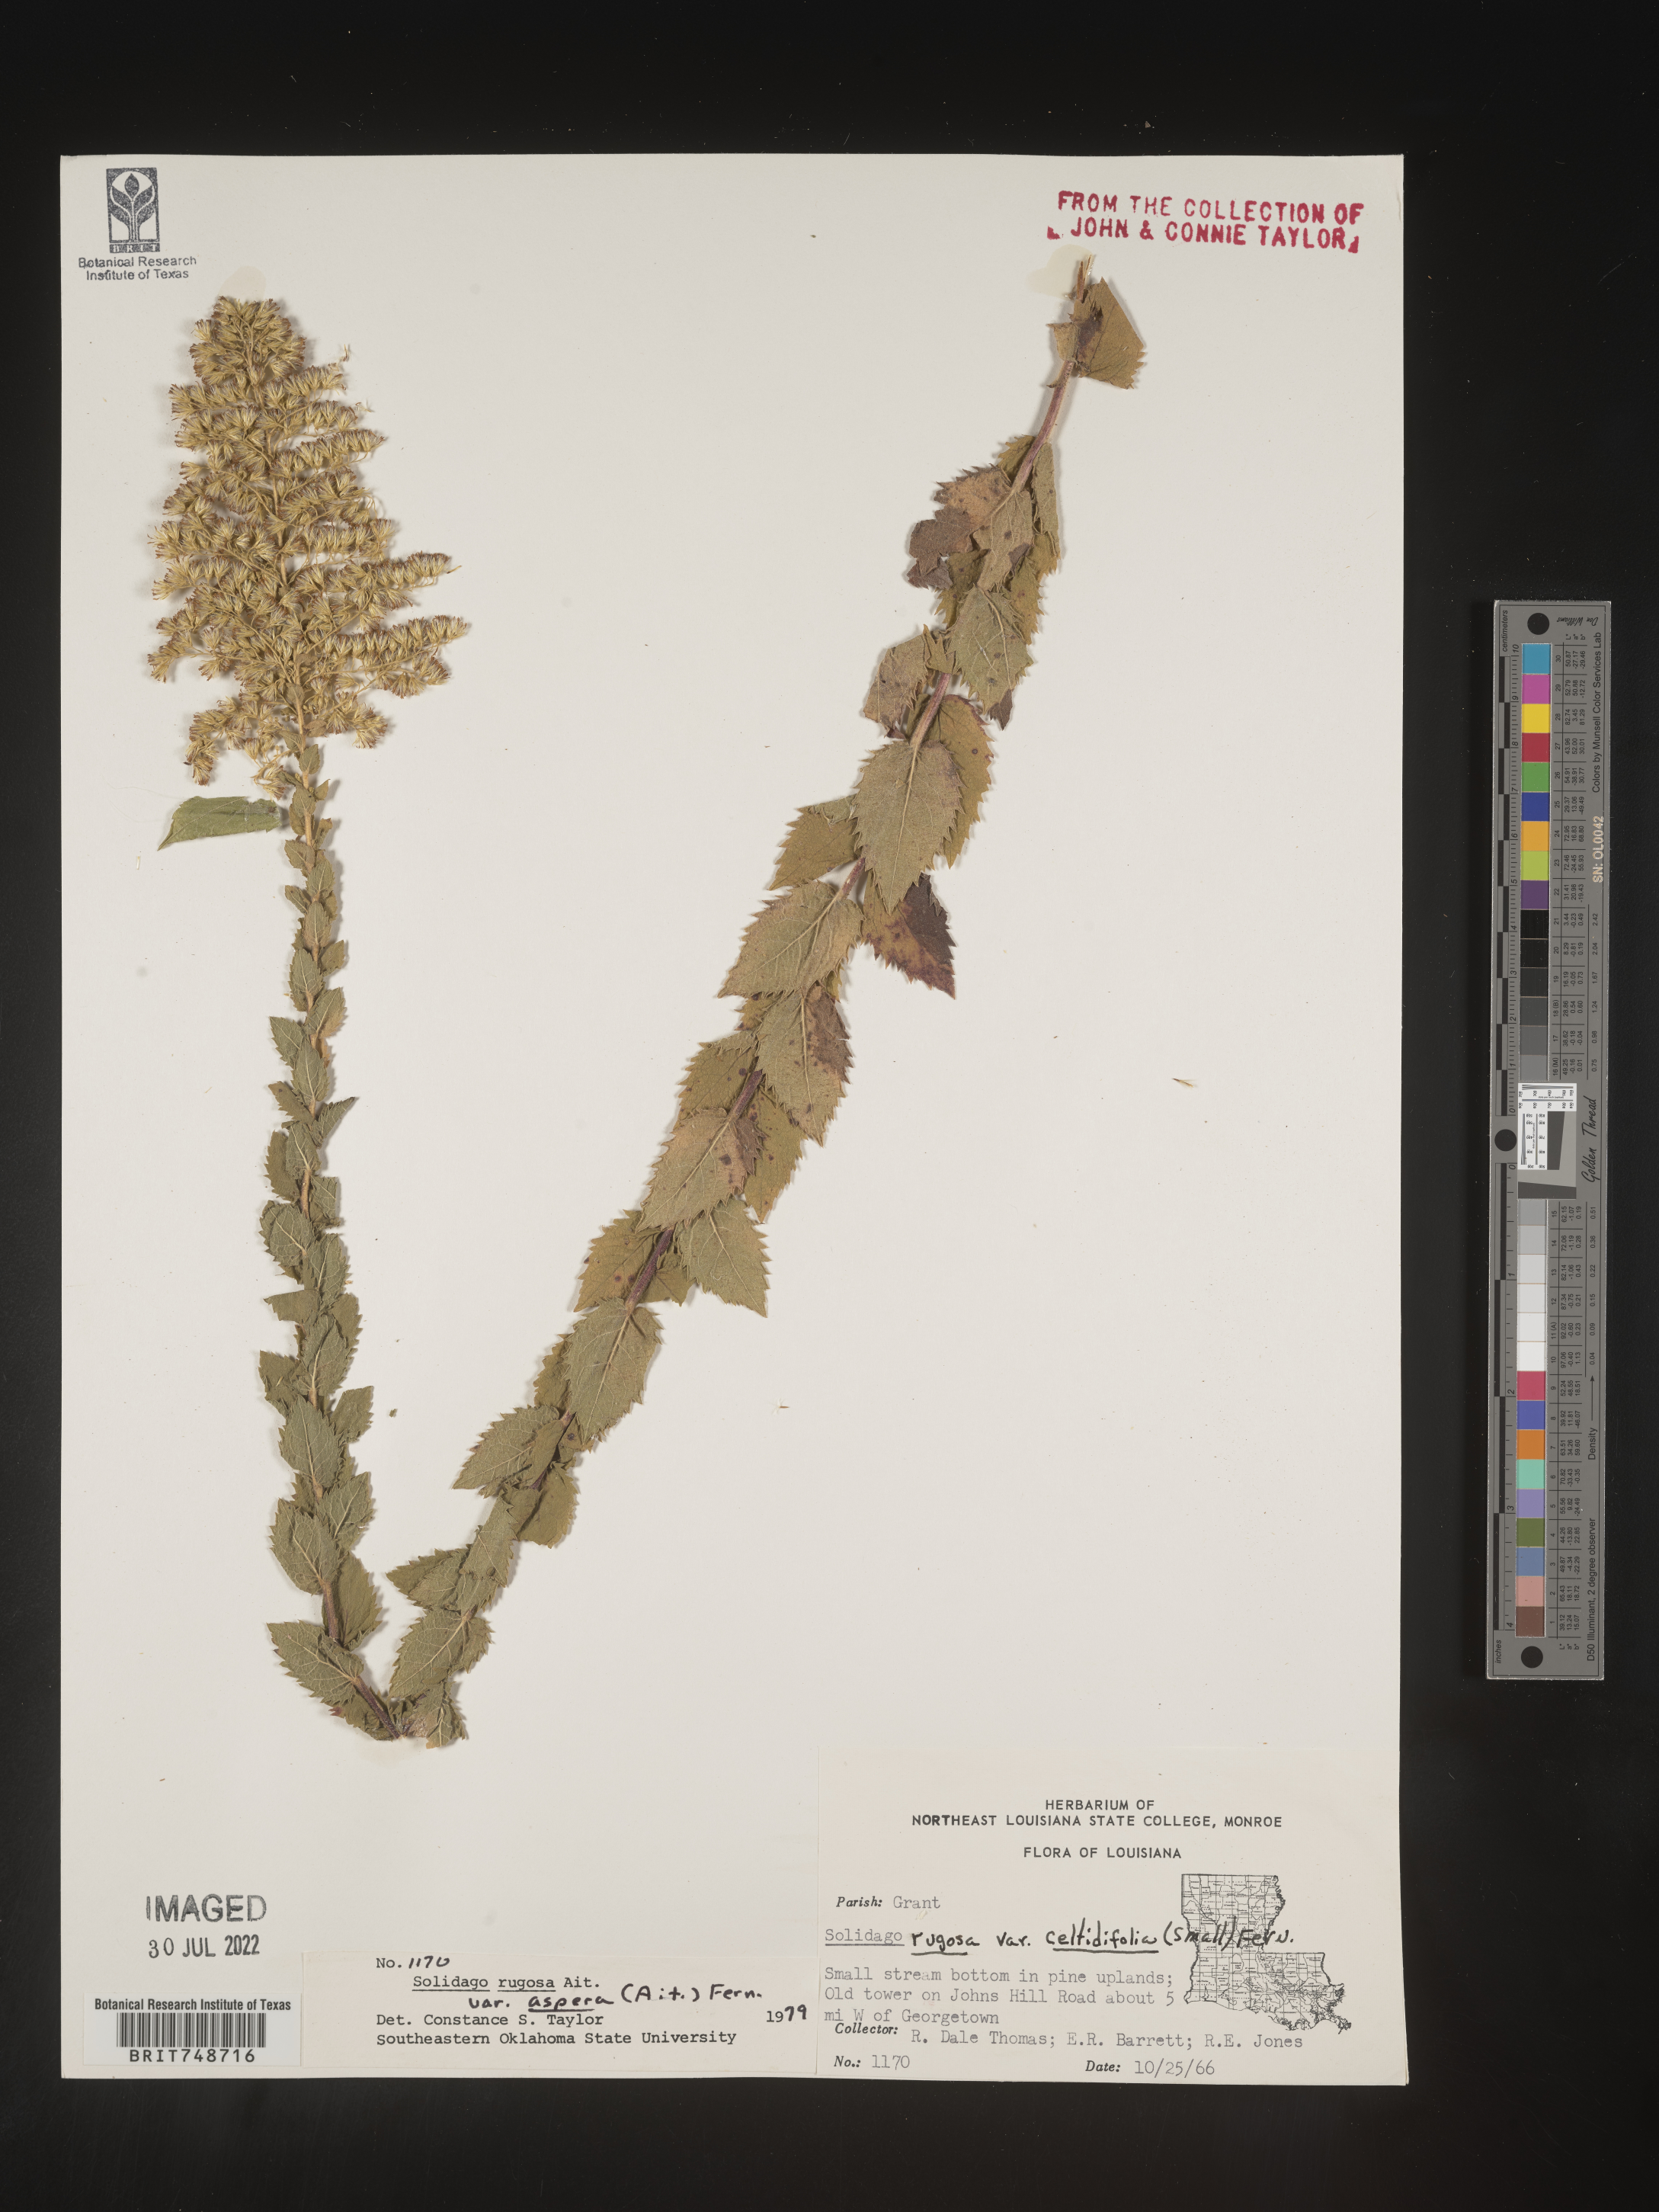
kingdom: Plantae
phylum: Tracheophyta
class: Magnoliopsida
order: Asterales
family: Asteraceae
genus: Solidago
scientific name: Solidago rugosa
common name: Rough-stemmed goldenrod
